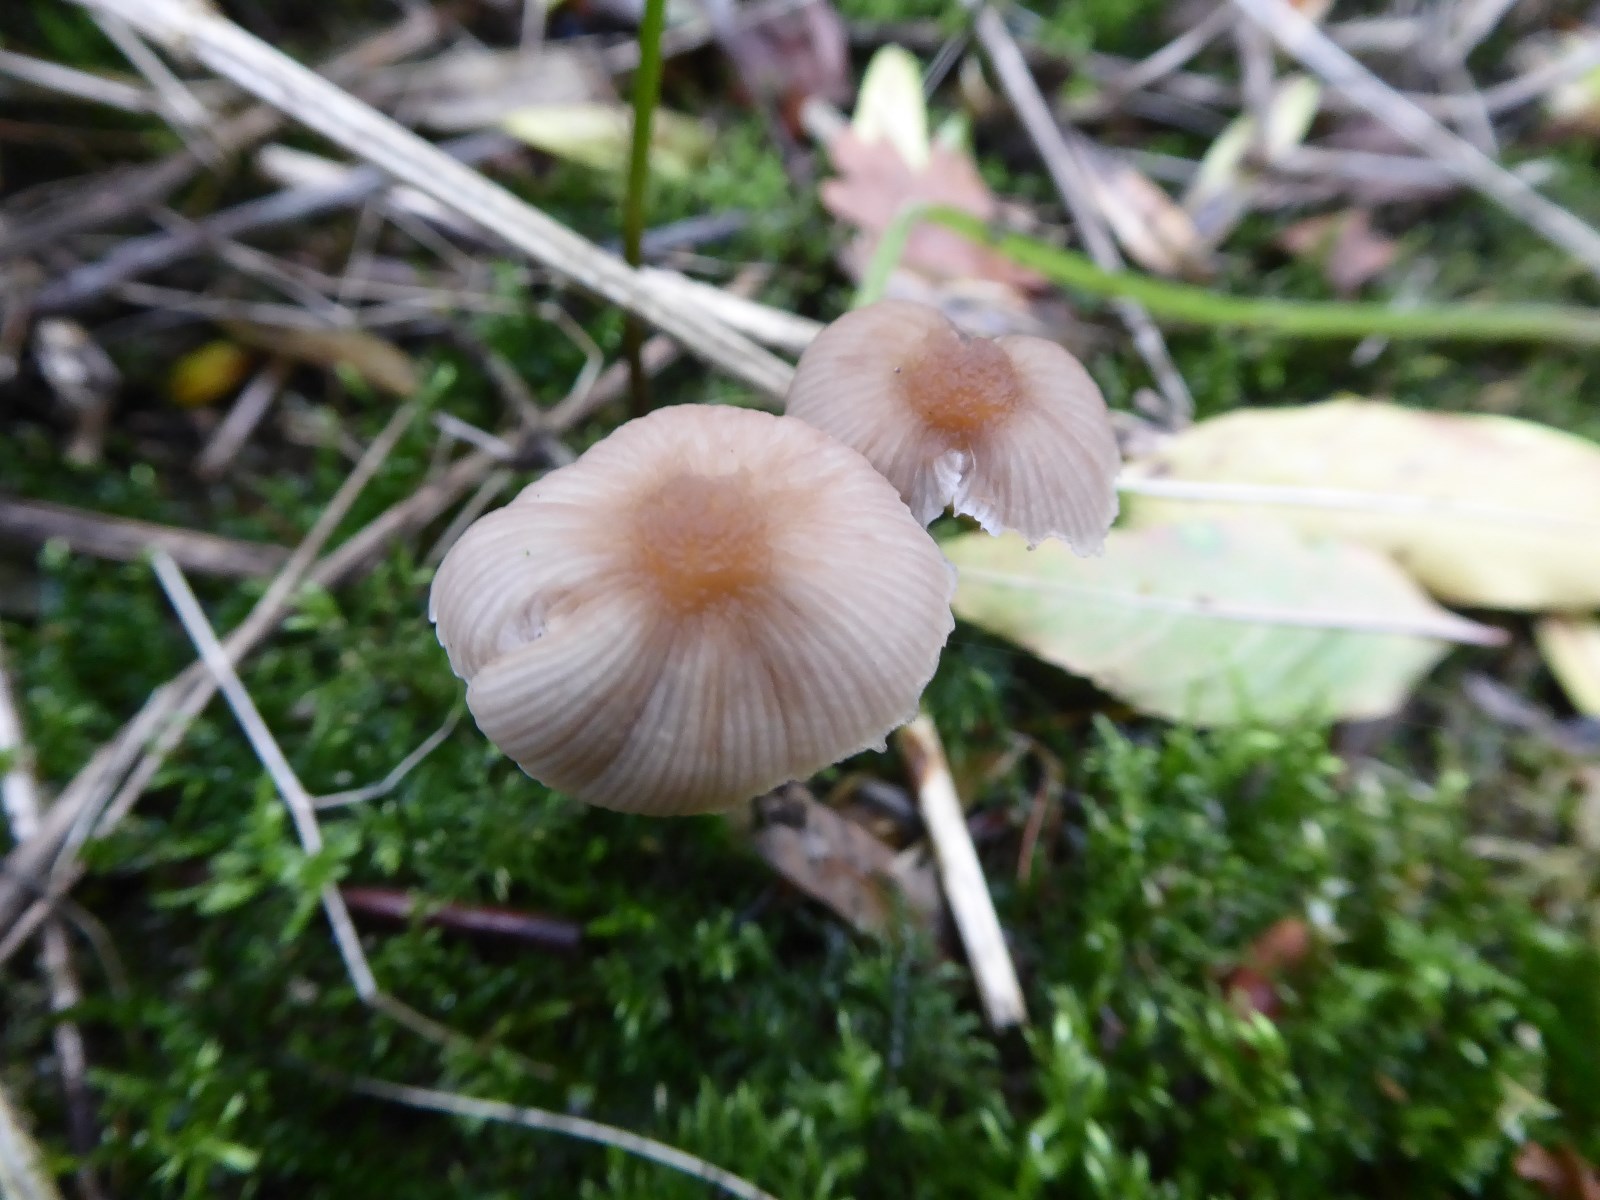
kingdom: Fungi
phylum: Basidiomycota
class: Agaricomycetes
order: Agaricales
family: Psathyrellaceae
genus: Psathyrella
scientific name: Psathyrella
